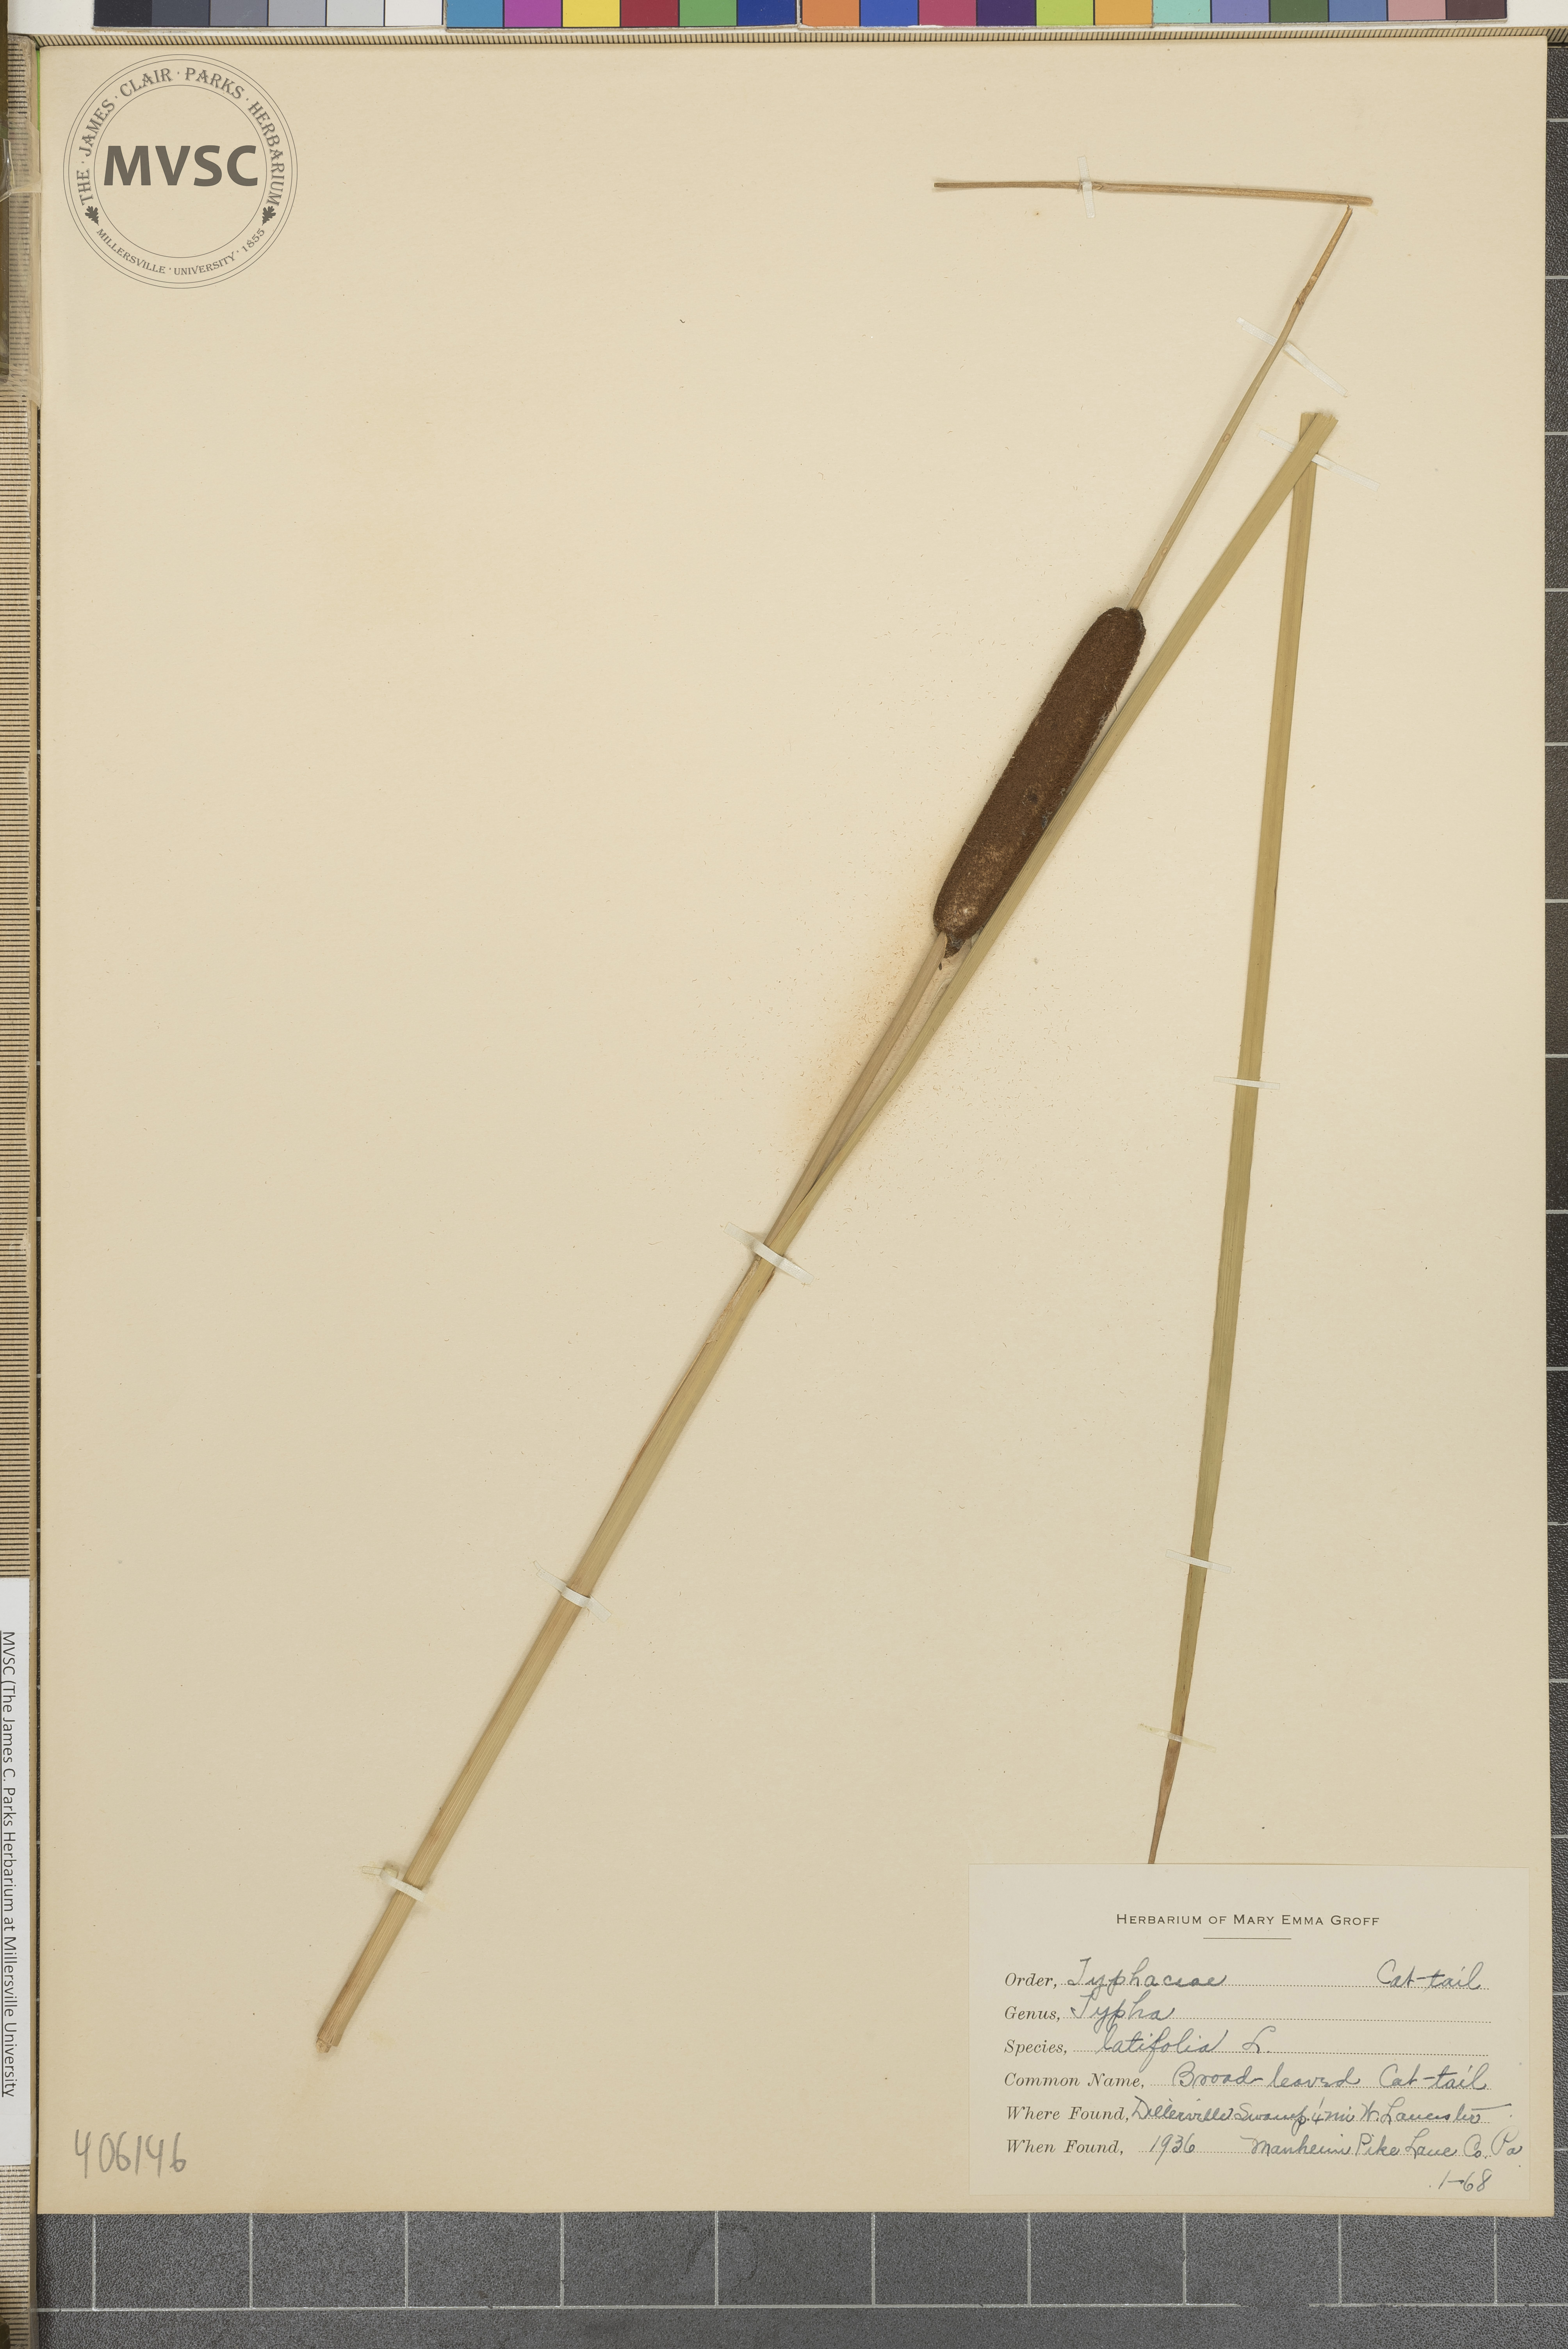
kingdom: Plantae
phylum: Tracheophyta
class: Liliopsida
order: Poales
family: Typhaceae
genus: Typha
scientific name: Typha latifolia
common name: Broadleaf cattail
